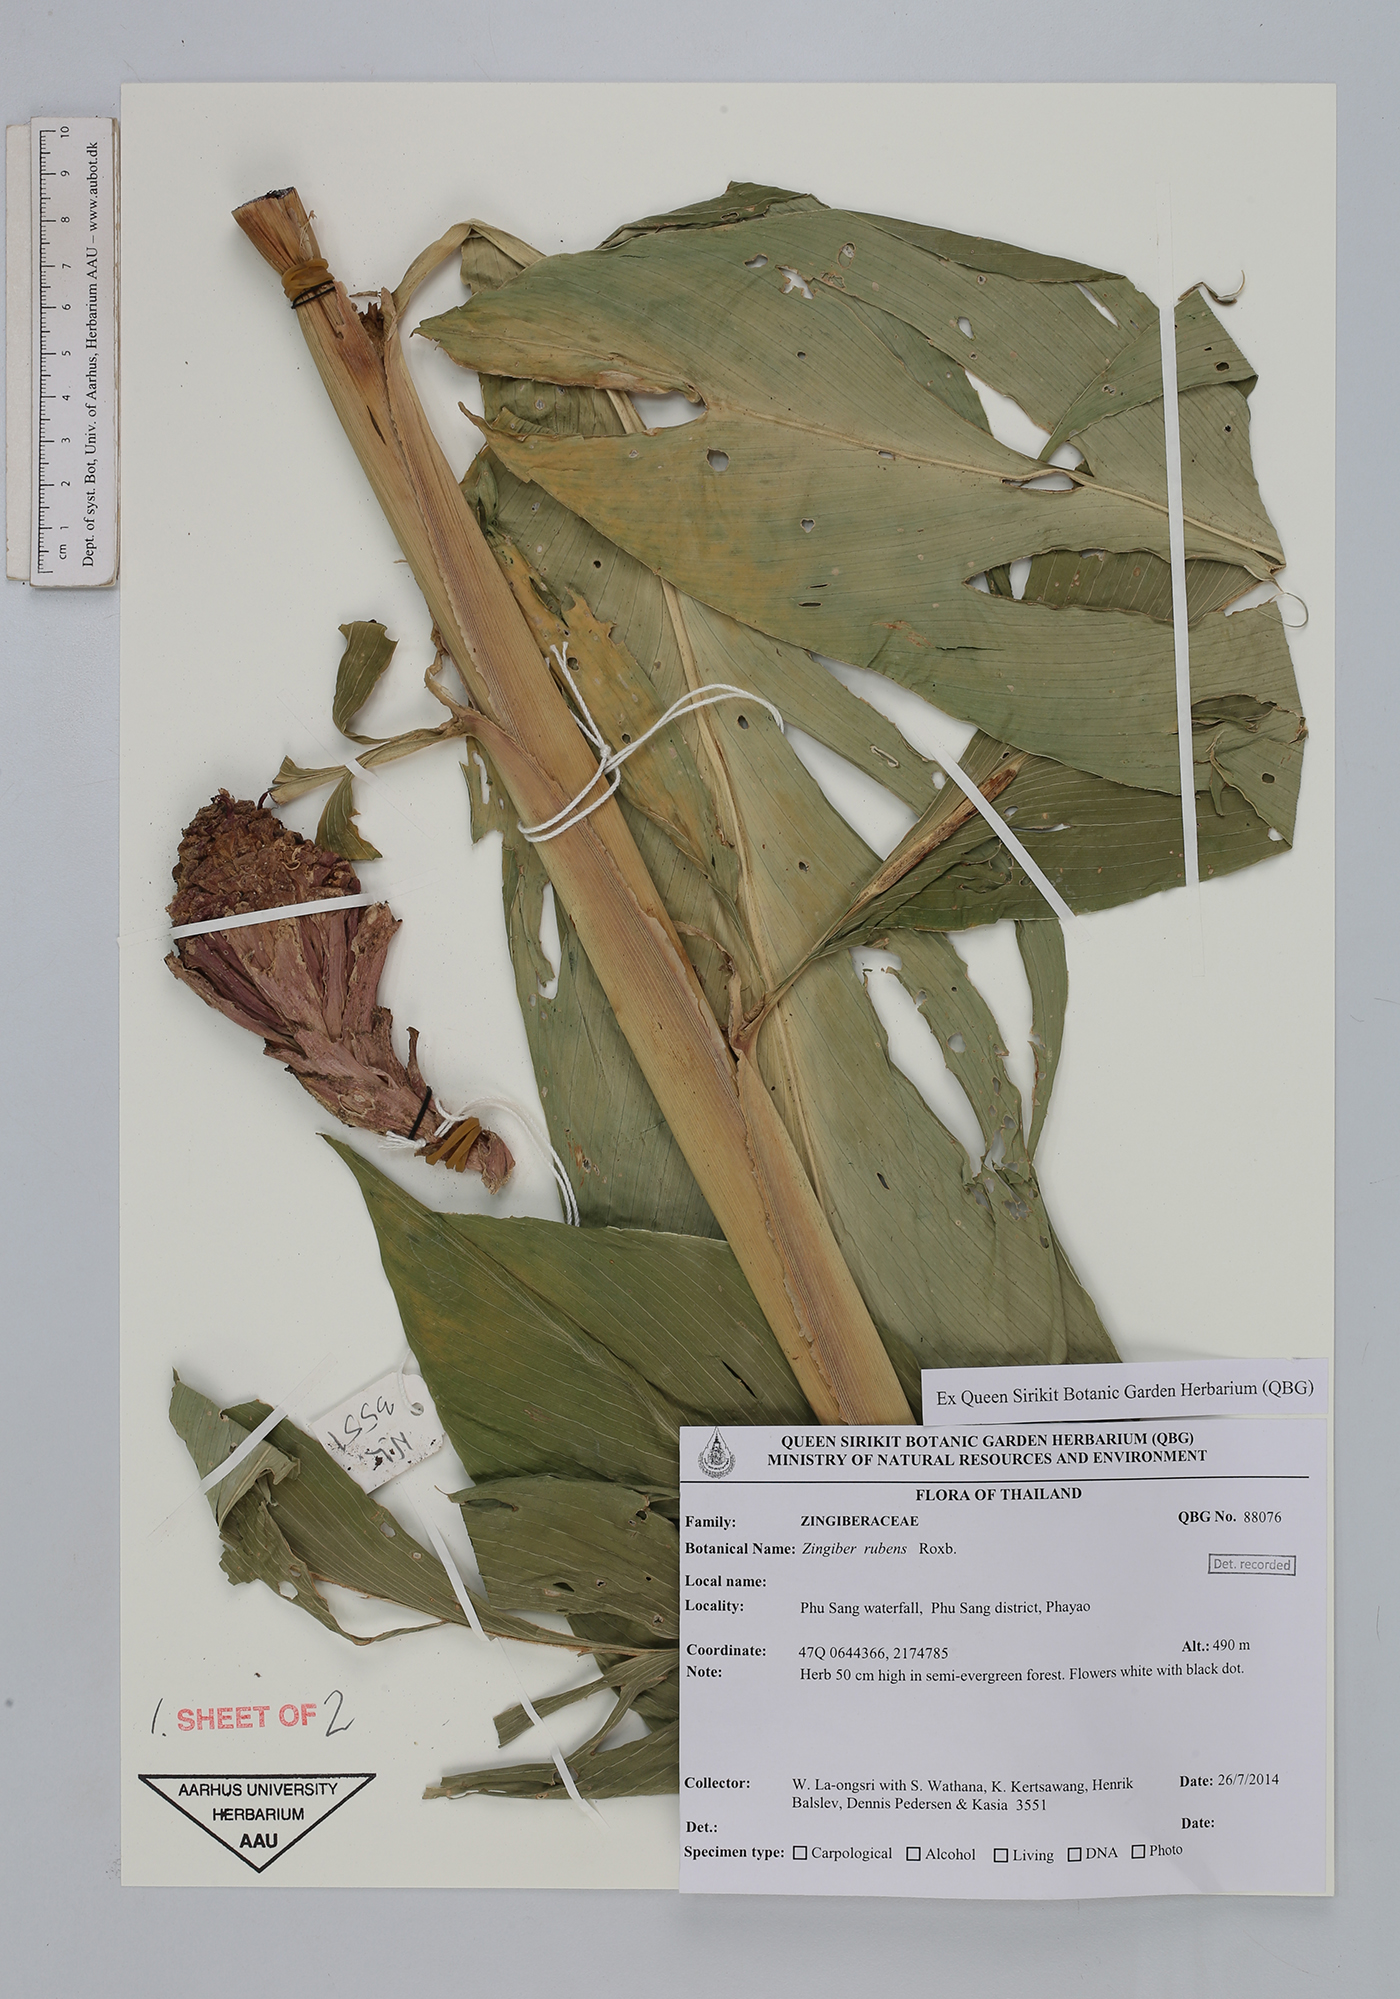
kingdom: Plantae
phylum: Tracheophyta
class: Liliopsida
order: Zingiberales
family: Zingiberaceae
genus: Zingiber
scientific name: Zingiber rubens
